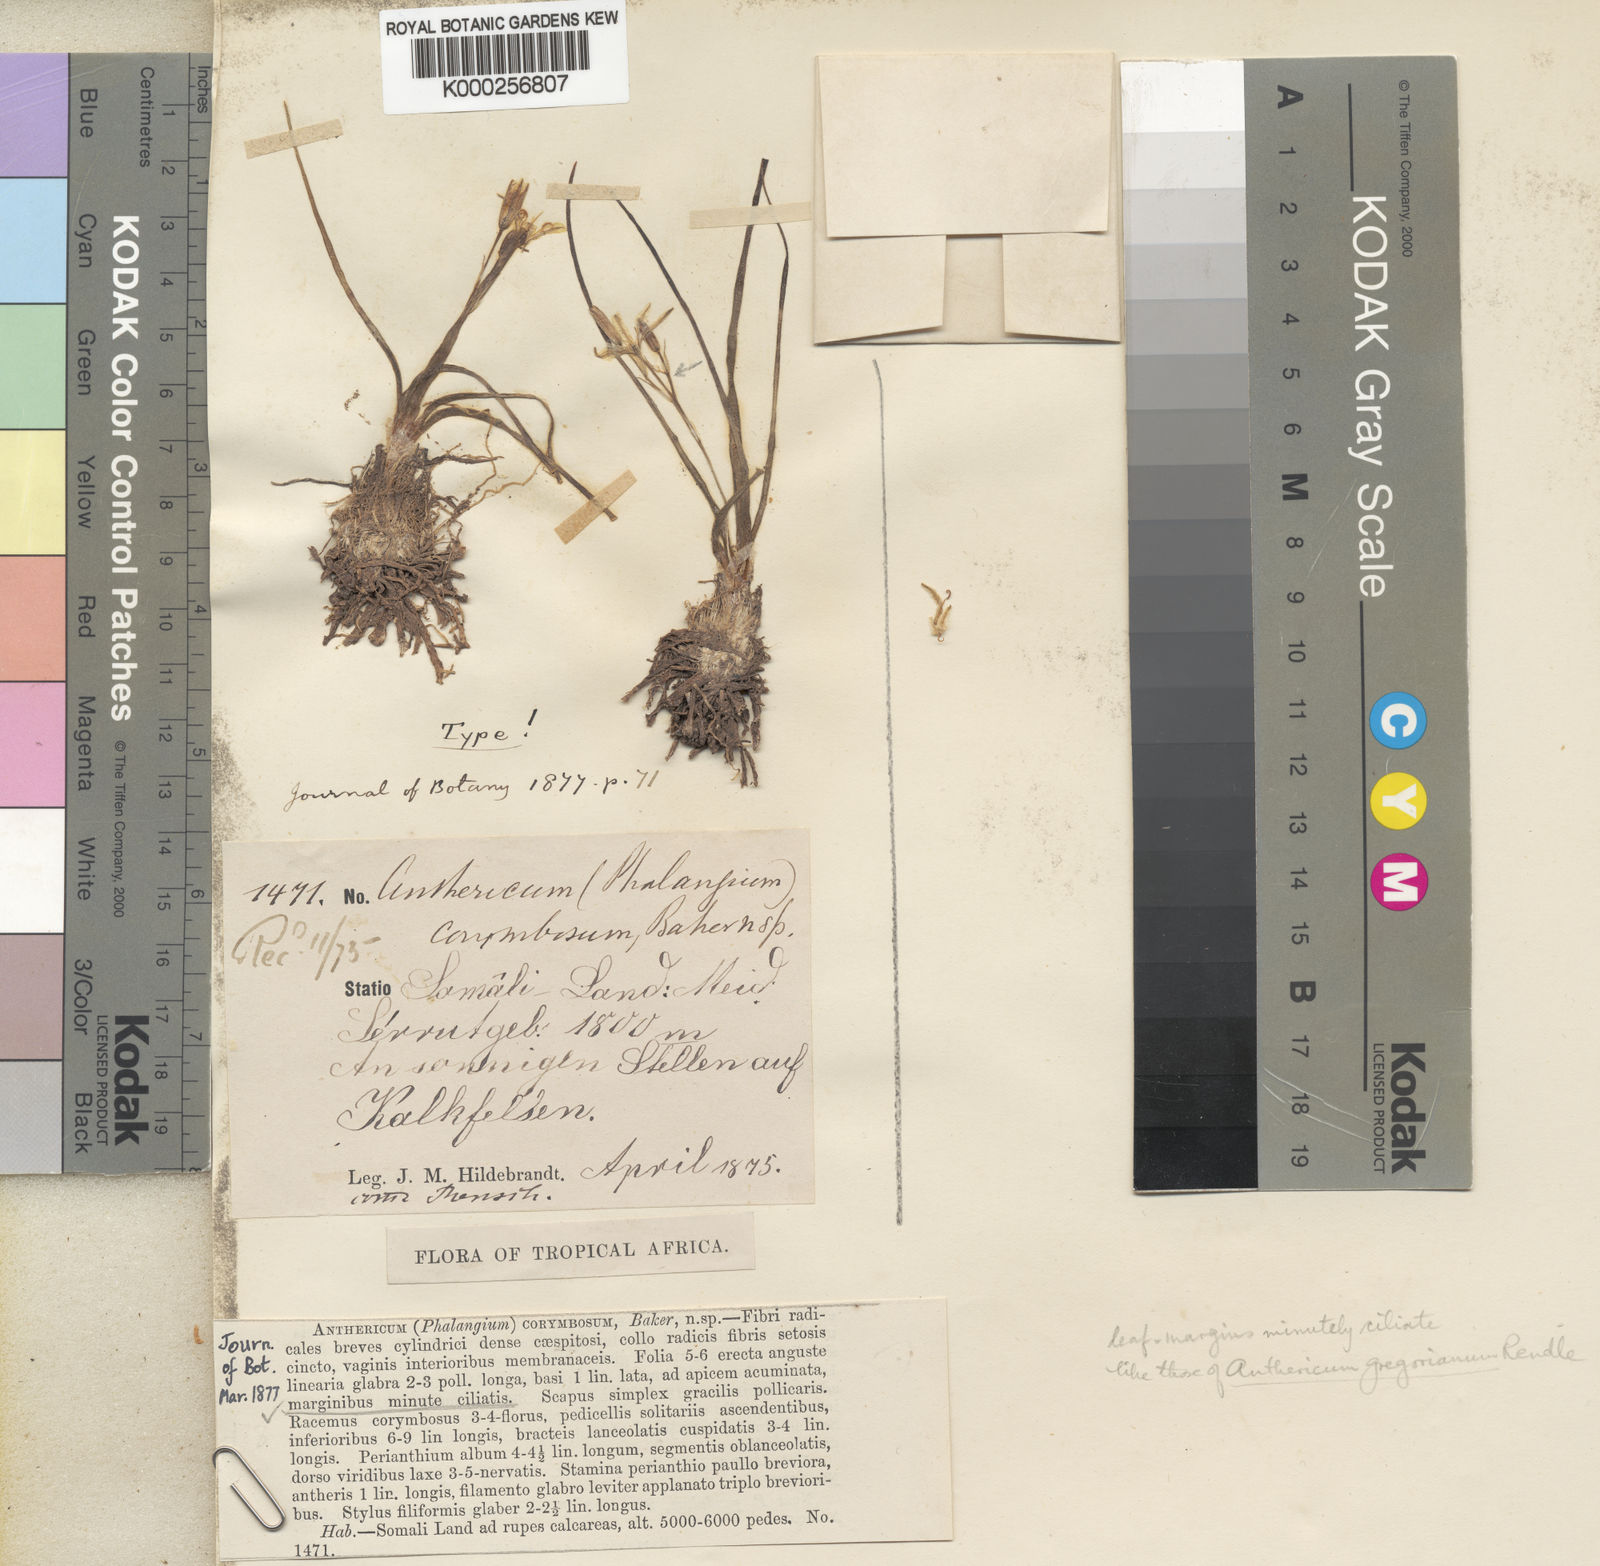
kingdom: Plantae
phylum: Tracheophyta
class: Liliopsida
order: Asparagales
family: Asparagaceae
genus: Anthericum
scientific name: Anthericum corymbosum
